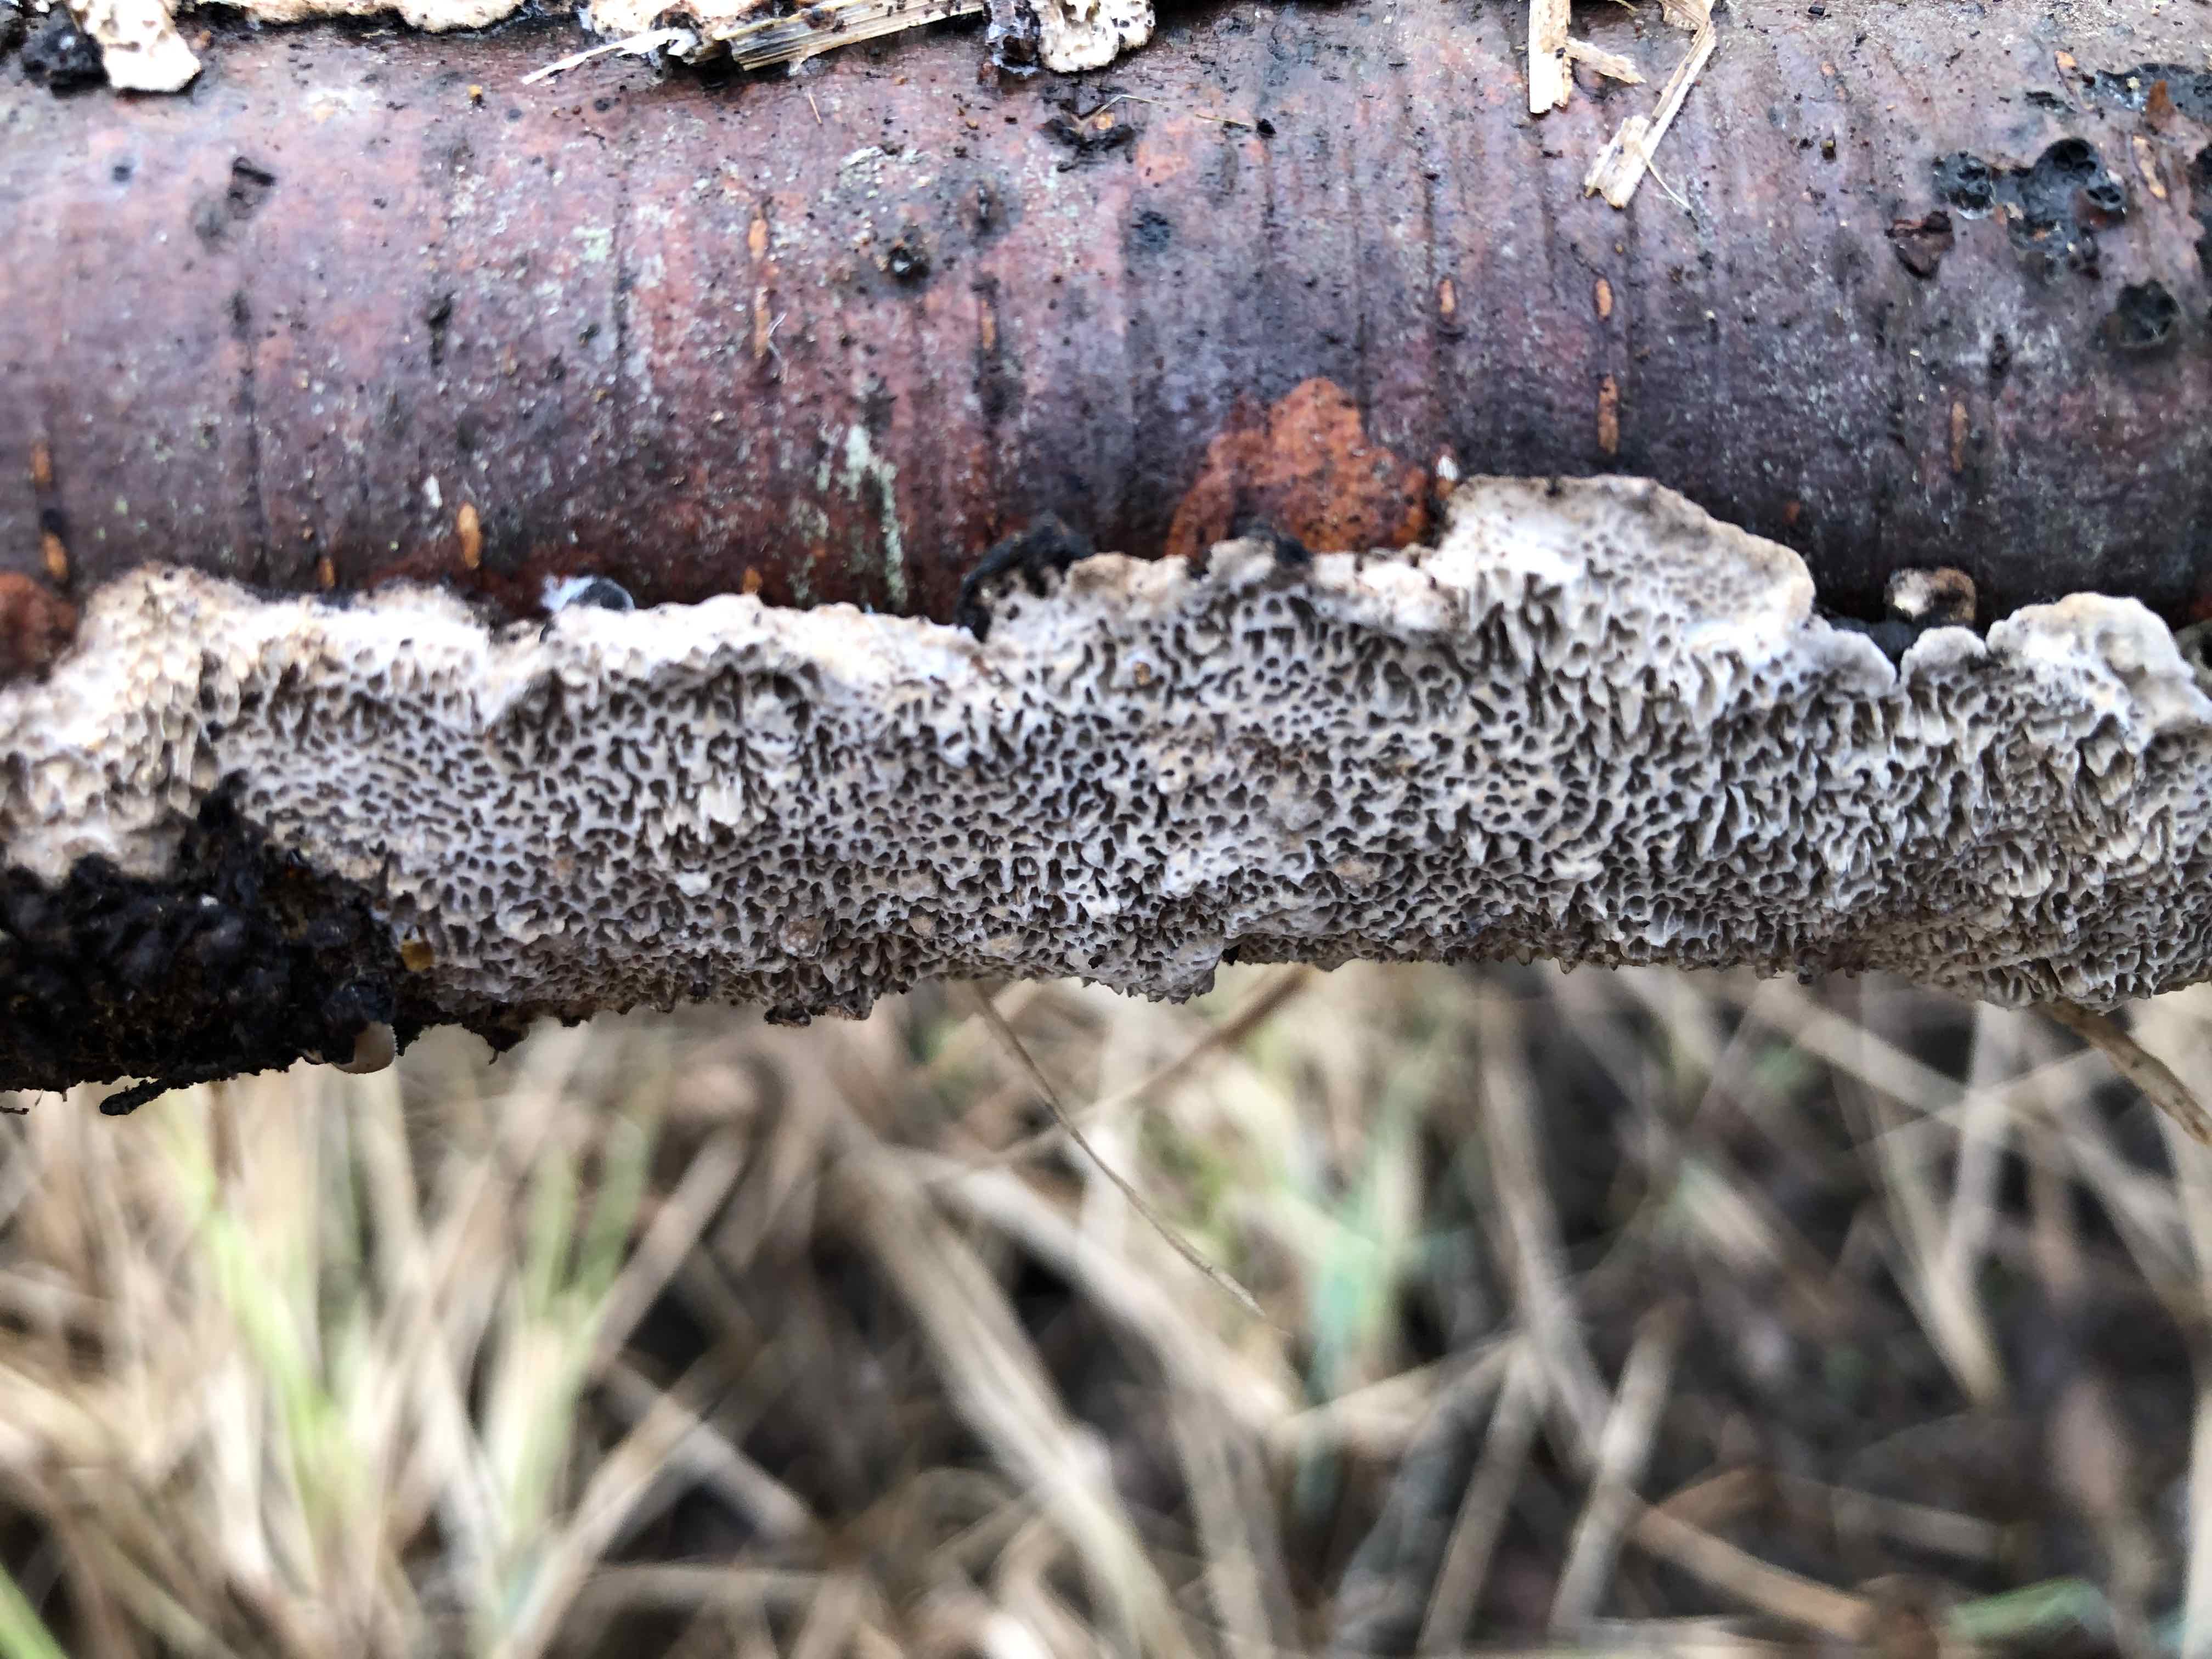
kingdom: Fungi
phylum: Basidiomycota
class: Agaricomycetes
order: Polyporales
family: Polyporaceae
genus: Podofomes
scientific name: Podofomes mollis
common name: blød begporesvamp
